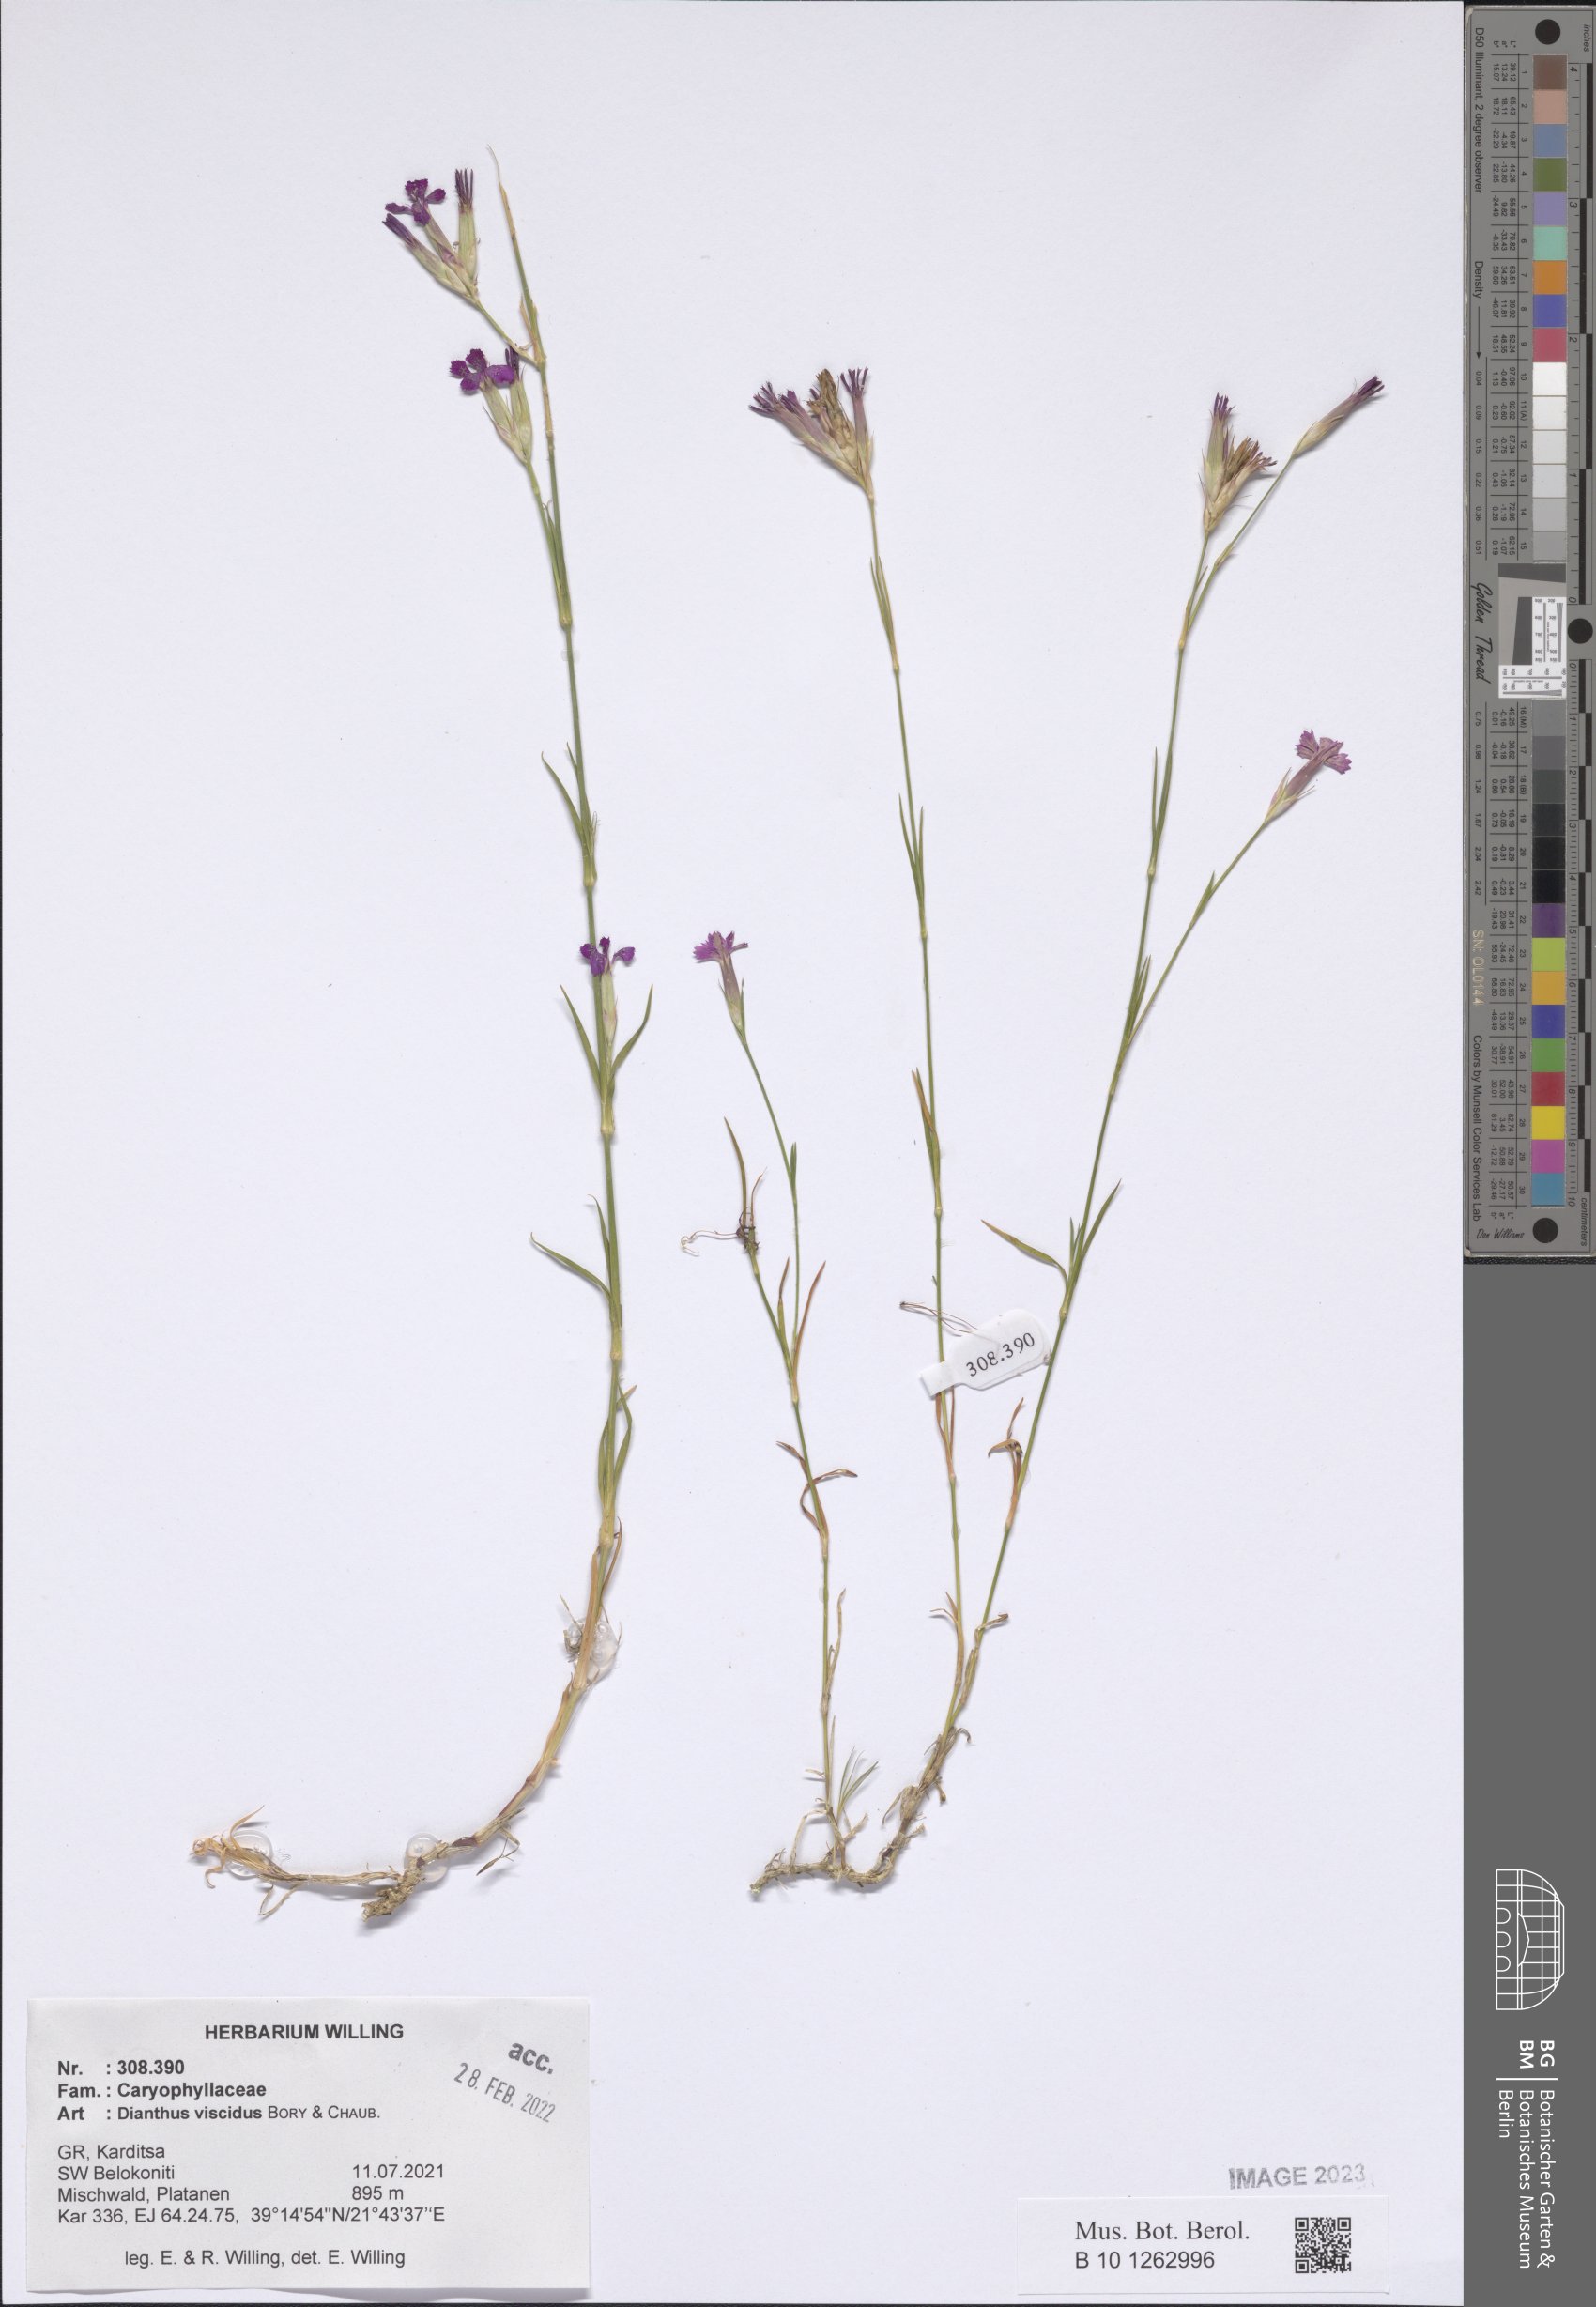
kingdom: Plantae
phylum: Tracheophyta
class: Magnoliopsida
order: Caryophyllales
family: Caryophyllaceae
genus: Dianthus
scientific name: Dianthus viscidus
